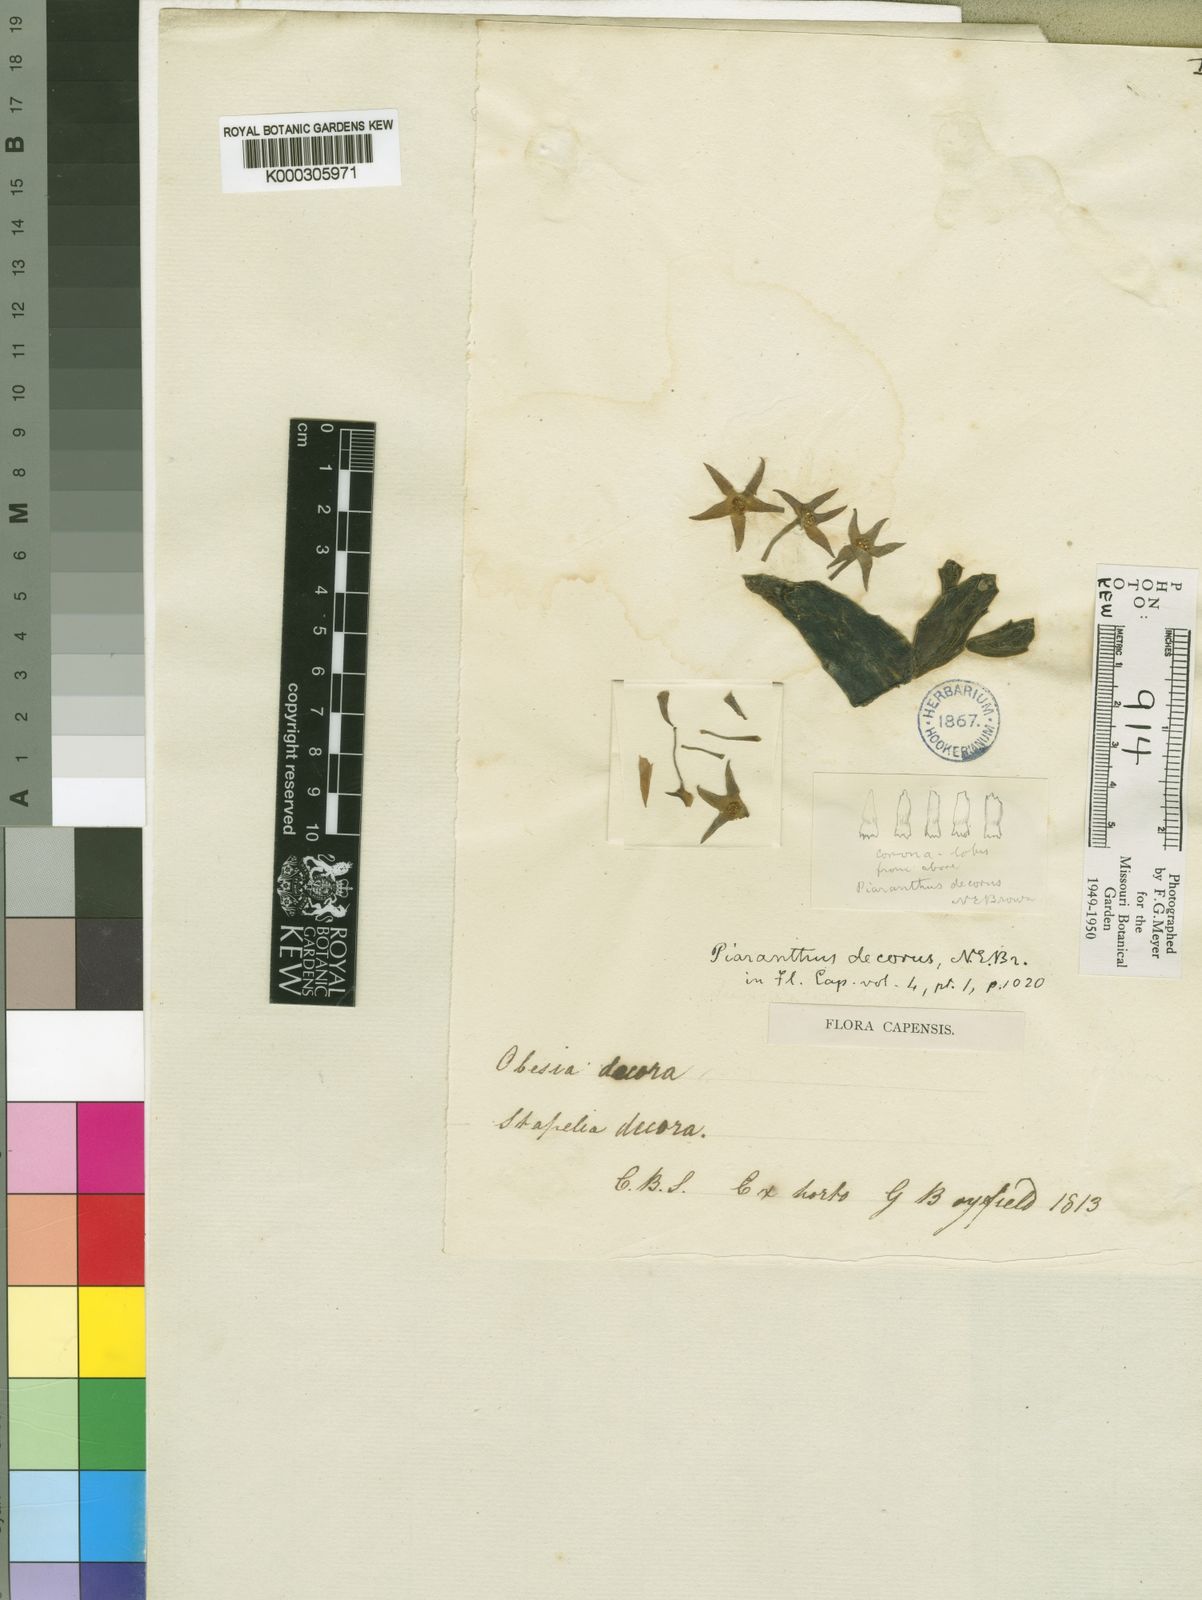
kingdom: Plantae
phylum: Tracheophyta
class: Magnoliopsida
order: Gentianales
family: Apocynaceae
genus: Ceropegia
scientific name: Ceropegia geminata
